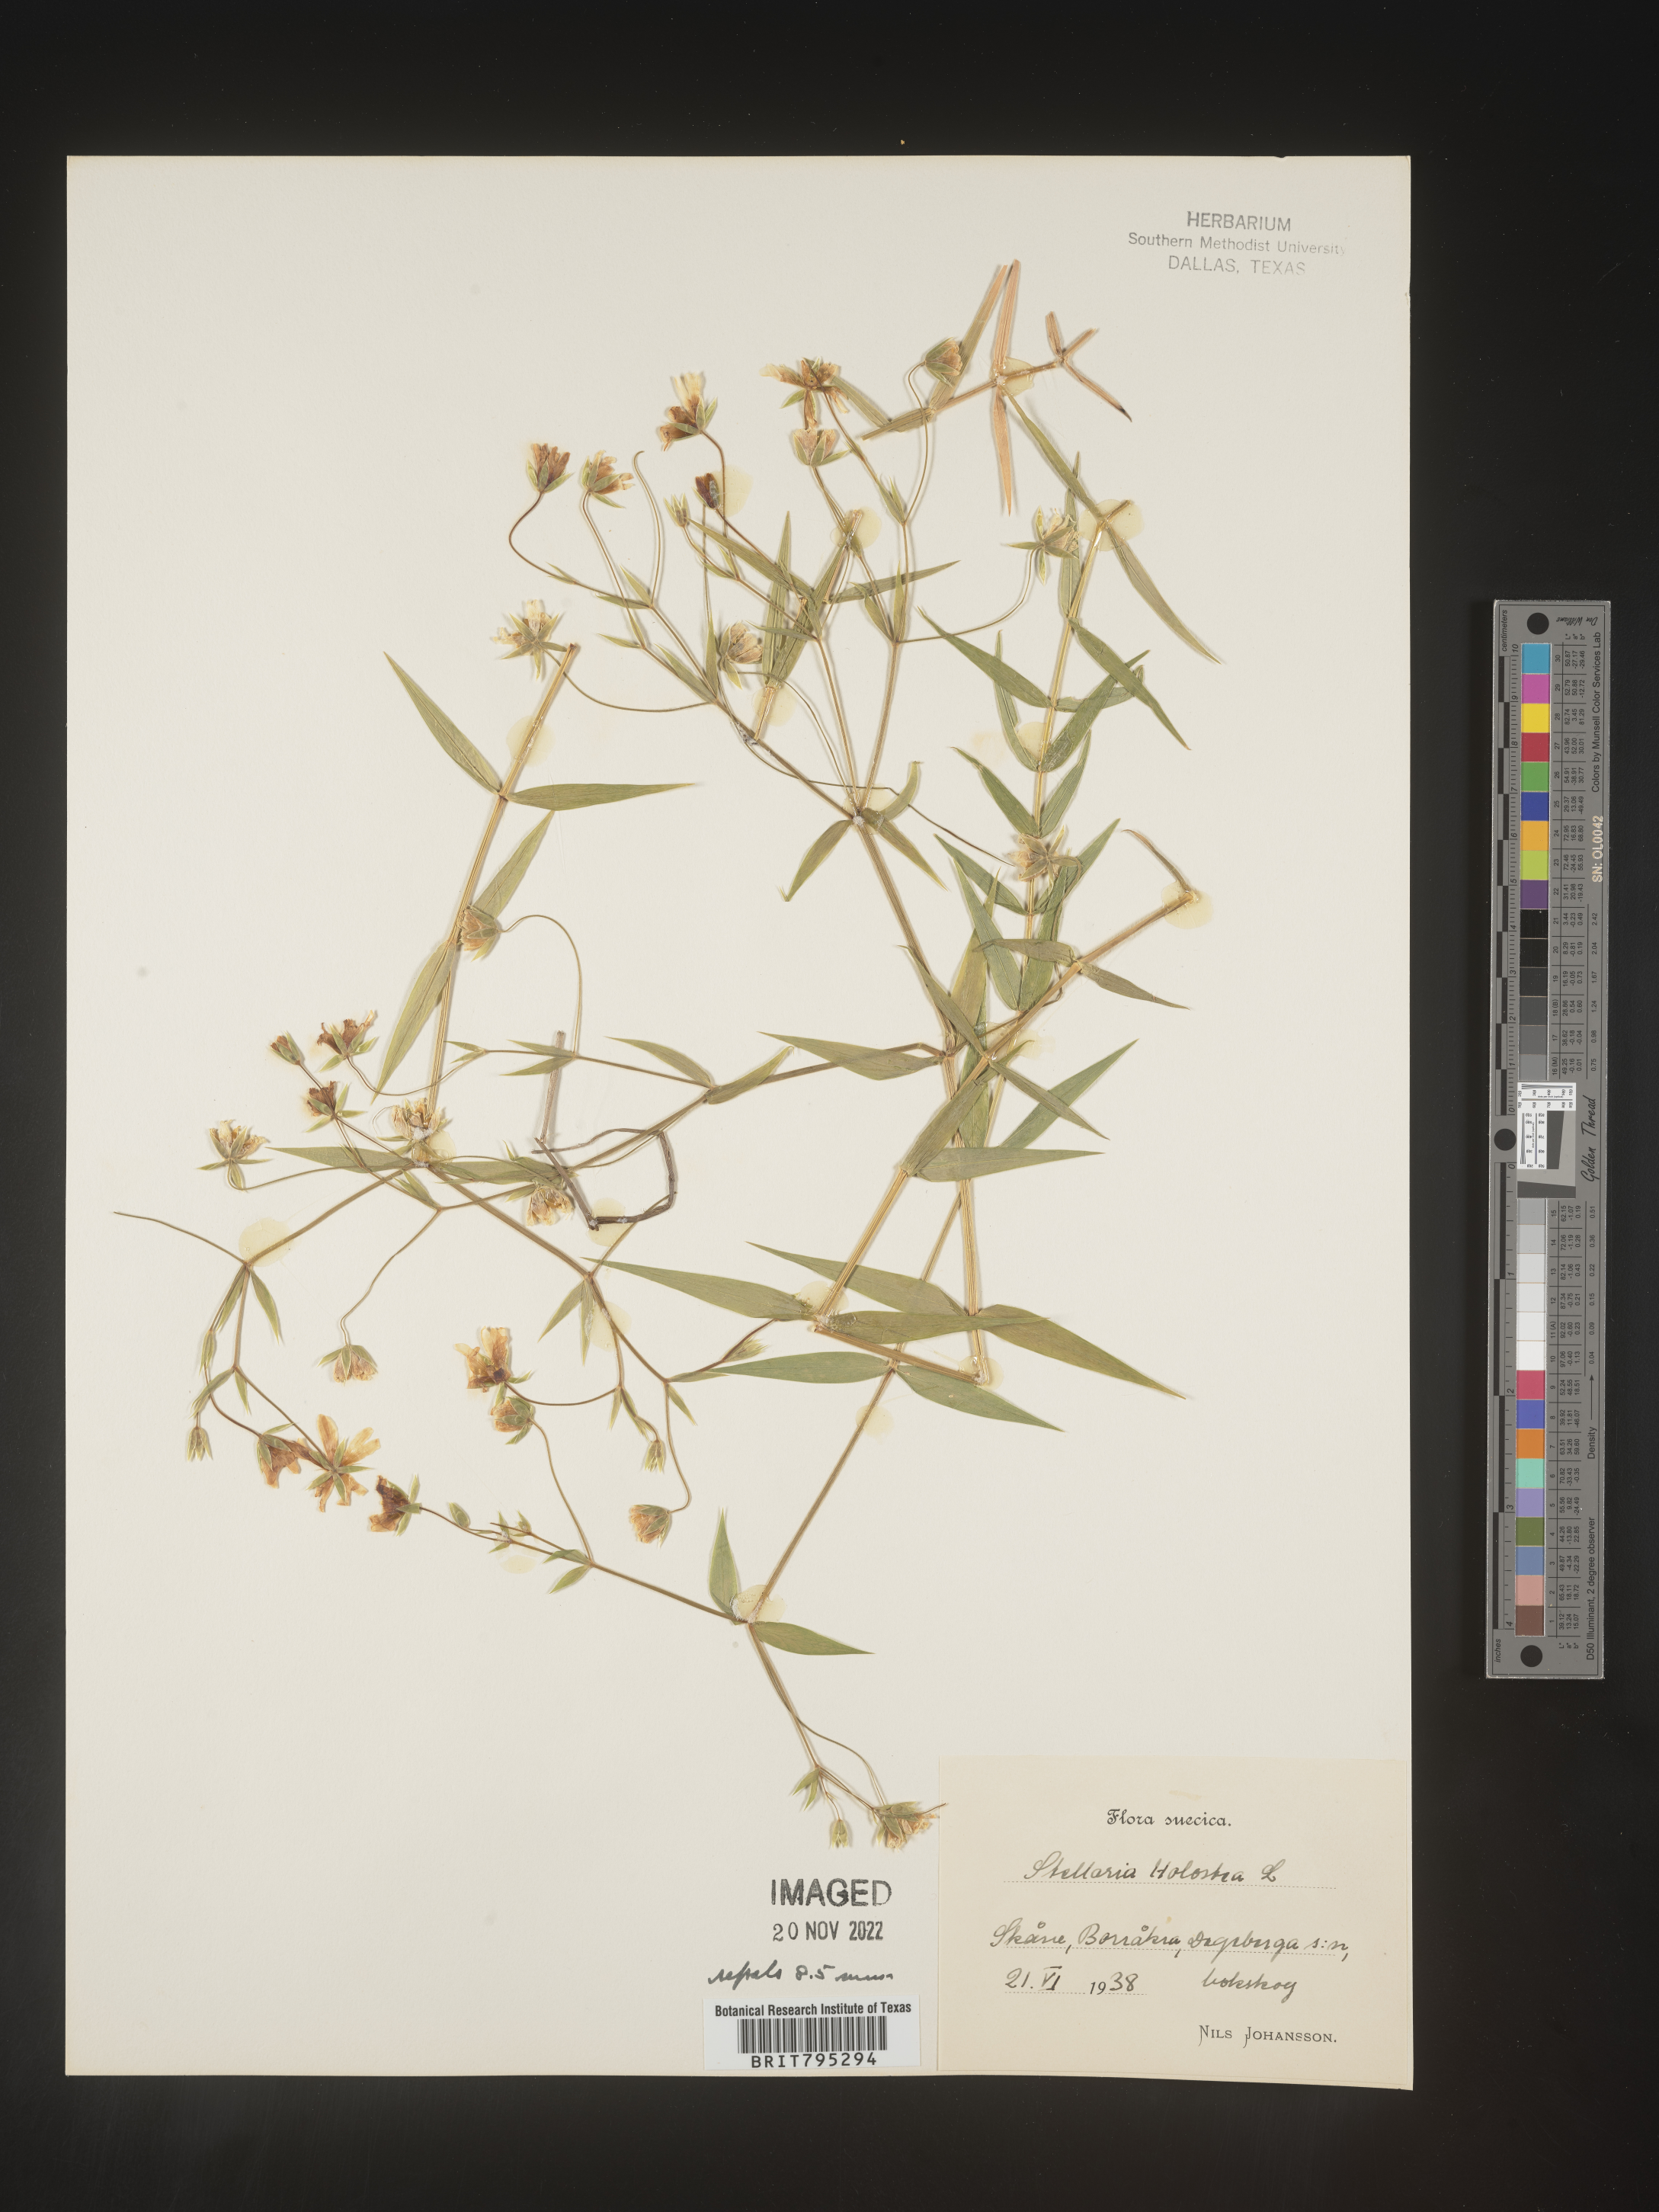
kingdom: Plantae
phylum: Tracheophyta
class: Magnoliopsida
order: Caryophyllales
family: Caryophyllaceae
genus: Stellaria
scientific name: Stellaria
